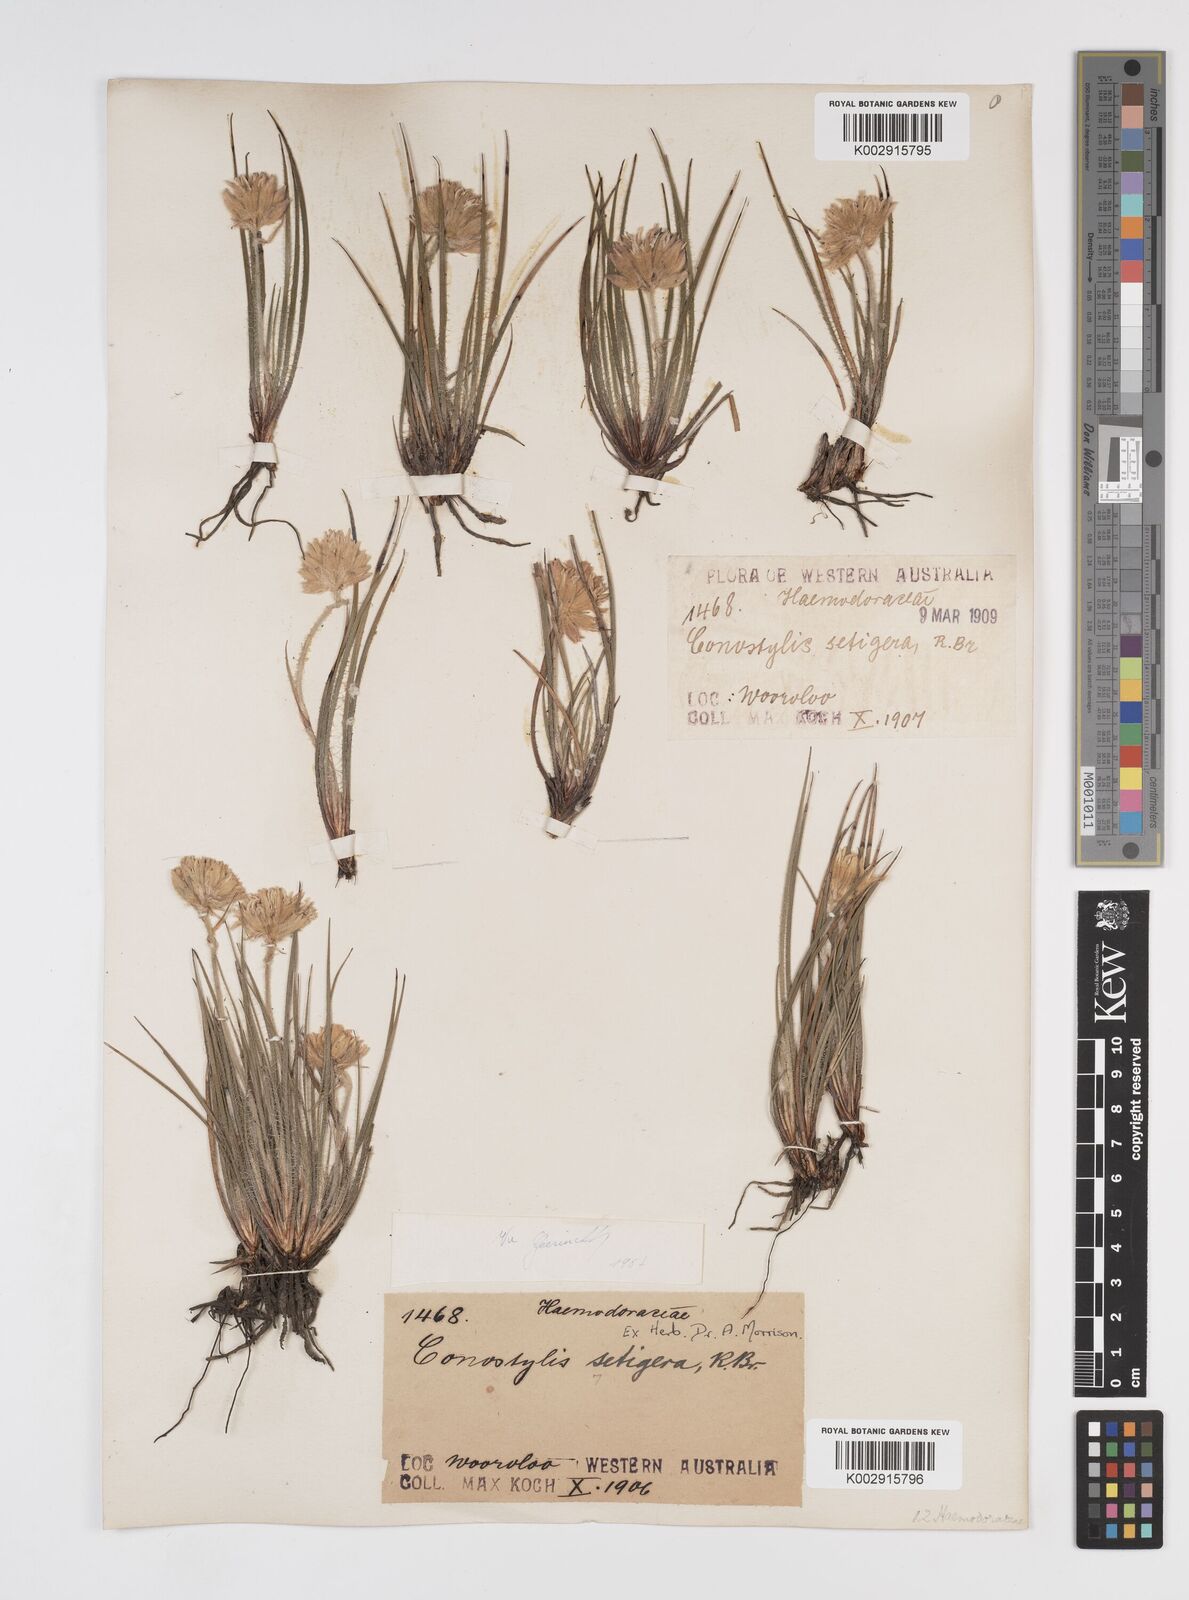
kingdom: Plantae
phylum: Tracheophyta
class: Liliopsida
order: Commelinales
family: Haemodoraceae
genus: Conostylis
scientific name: Conostylis setigera
